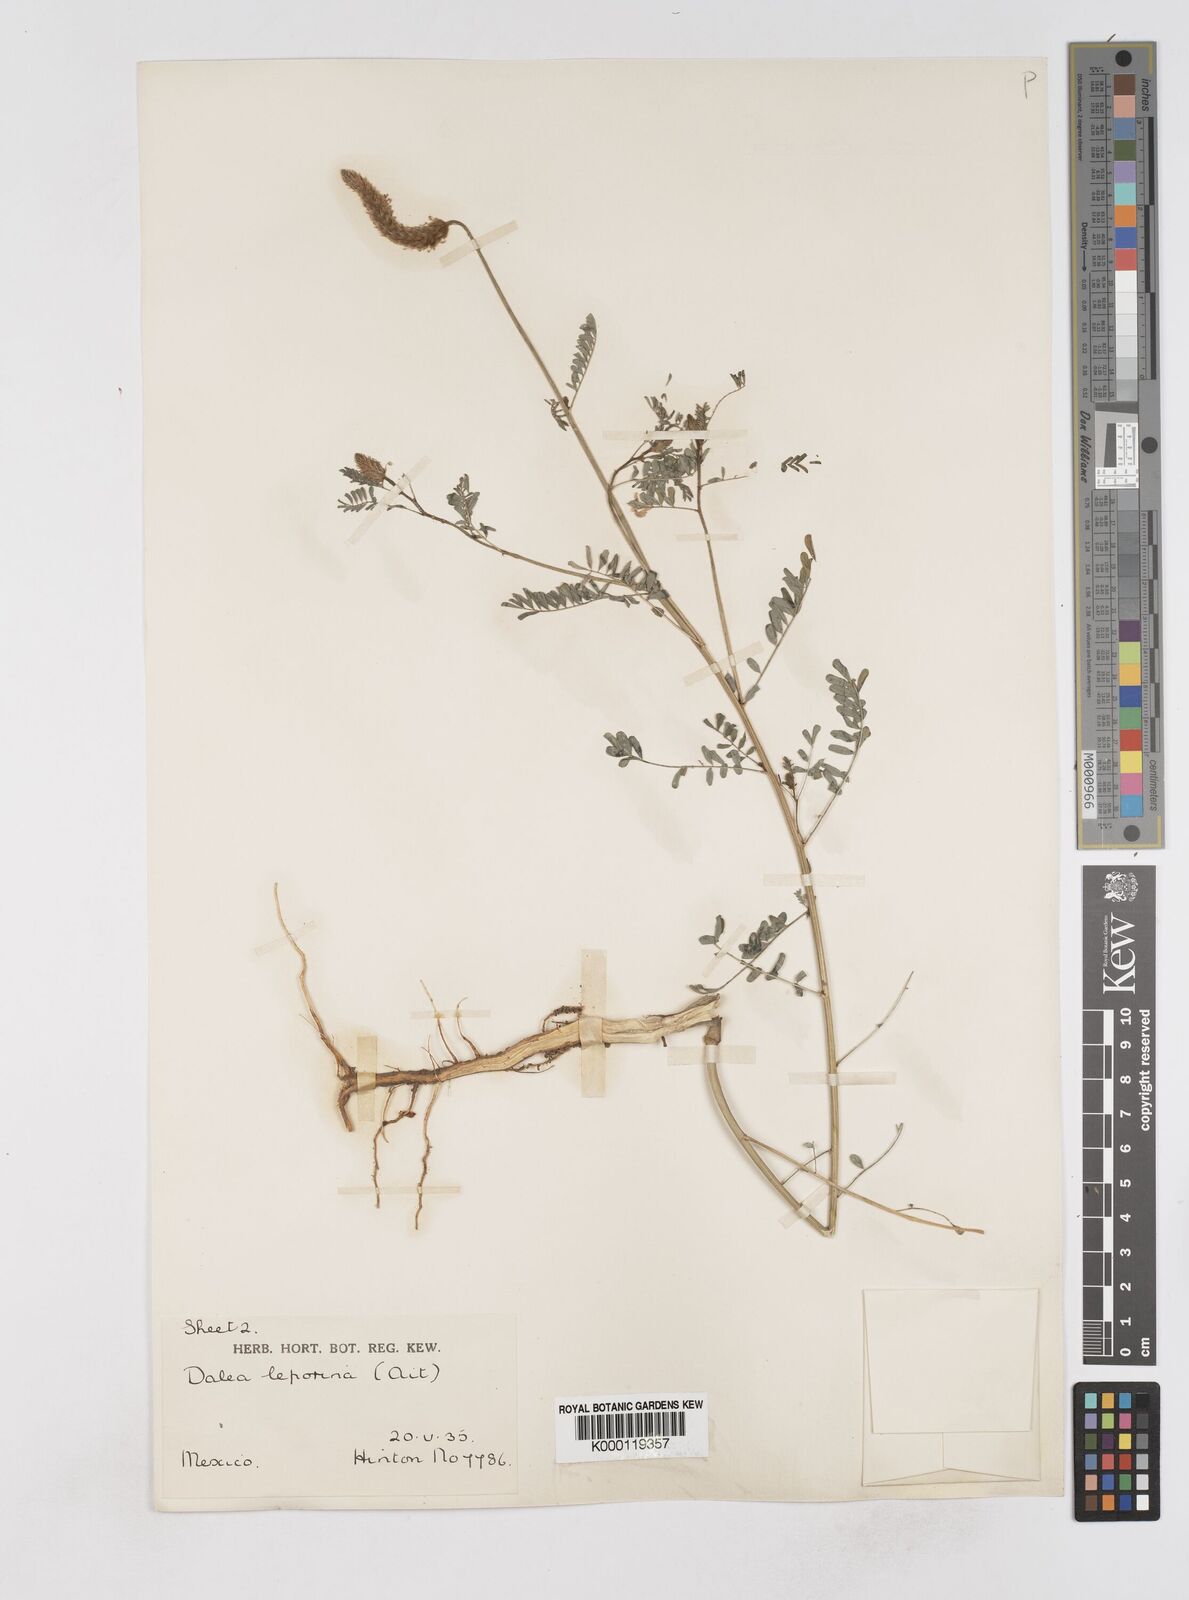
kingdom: Plantae
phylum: Tracheophyta
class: Magnoliopsida
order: Fabales
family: Fabaceae
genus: Dalea
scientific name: Dalea leporina
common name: Foxtail dalea
